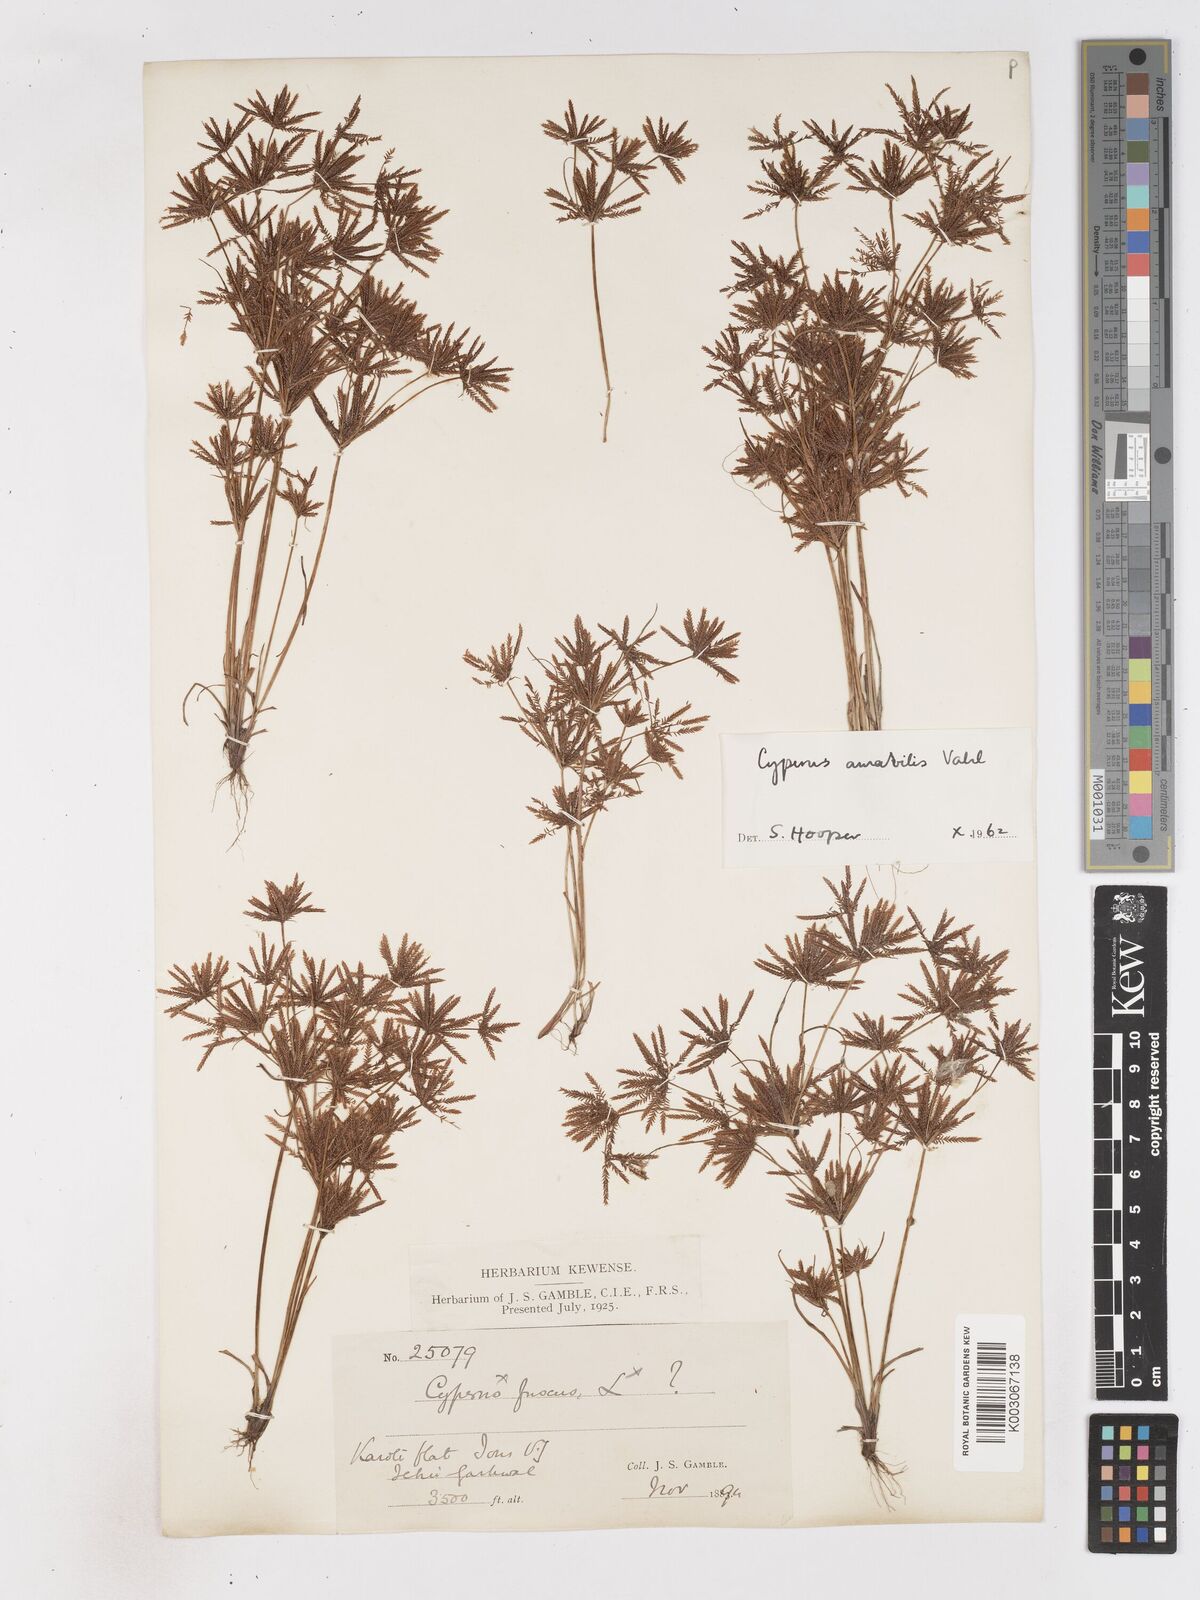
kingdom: Plantae
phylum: Tracheophyta
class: Liliopsida
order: Poales
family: Cyperaceae
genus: Cyperus
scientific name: Cyperus amabilis
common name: Foothill flat sedge
